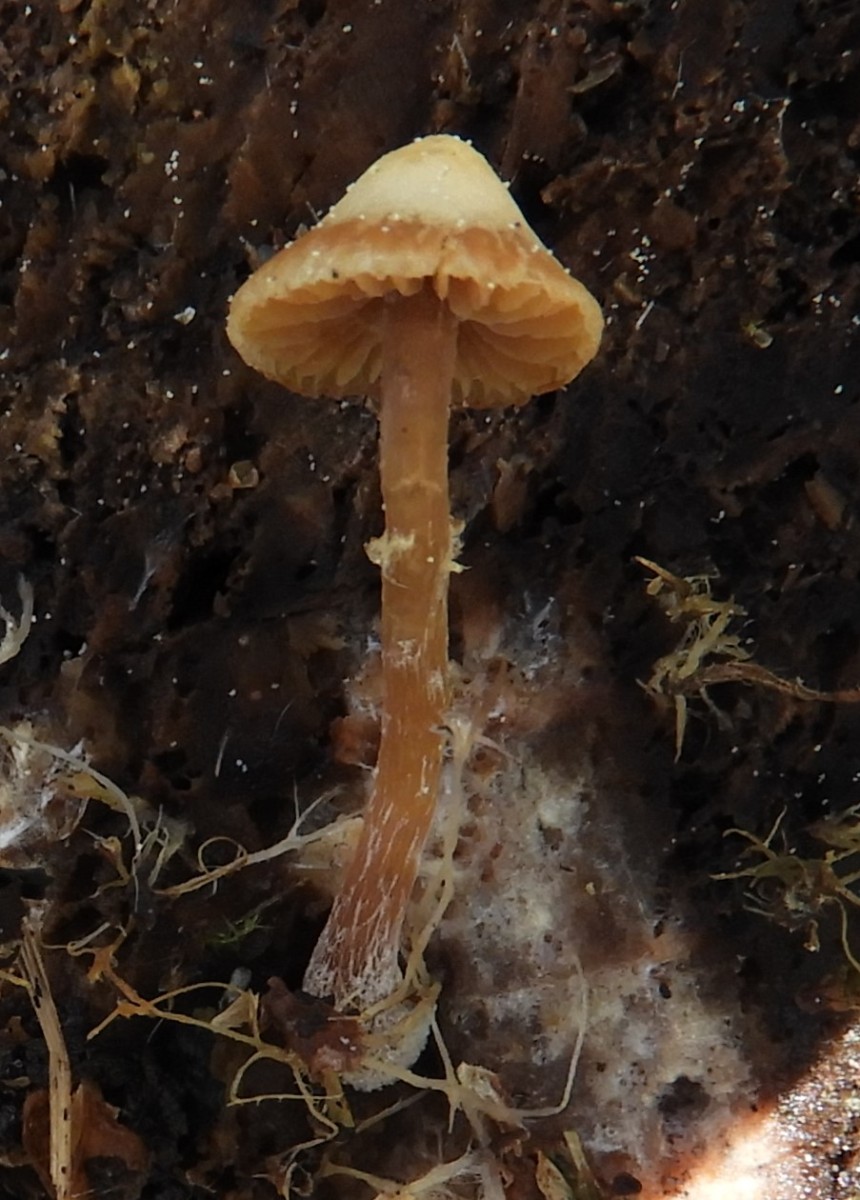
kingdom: Fungi
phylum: Basidiomycota
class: Agaricomycetes
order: Agaricales
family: Hymenogastraceae
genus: Galerina
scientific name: Galerina
